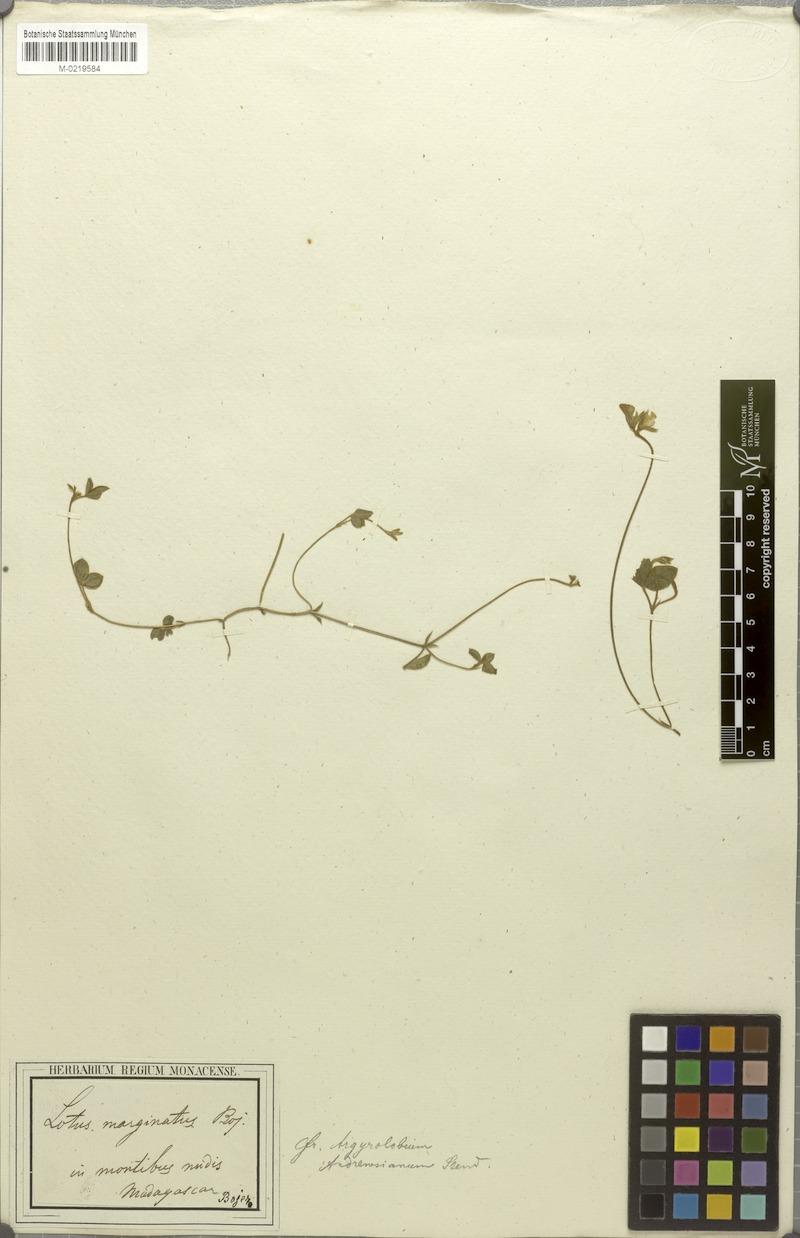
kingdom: Plantae
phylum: Tracheophyta
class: Magnoliopsida
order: Fabales
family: Fabaceae
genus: Argyrolobium
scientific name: Argyrolobium tomentosum
